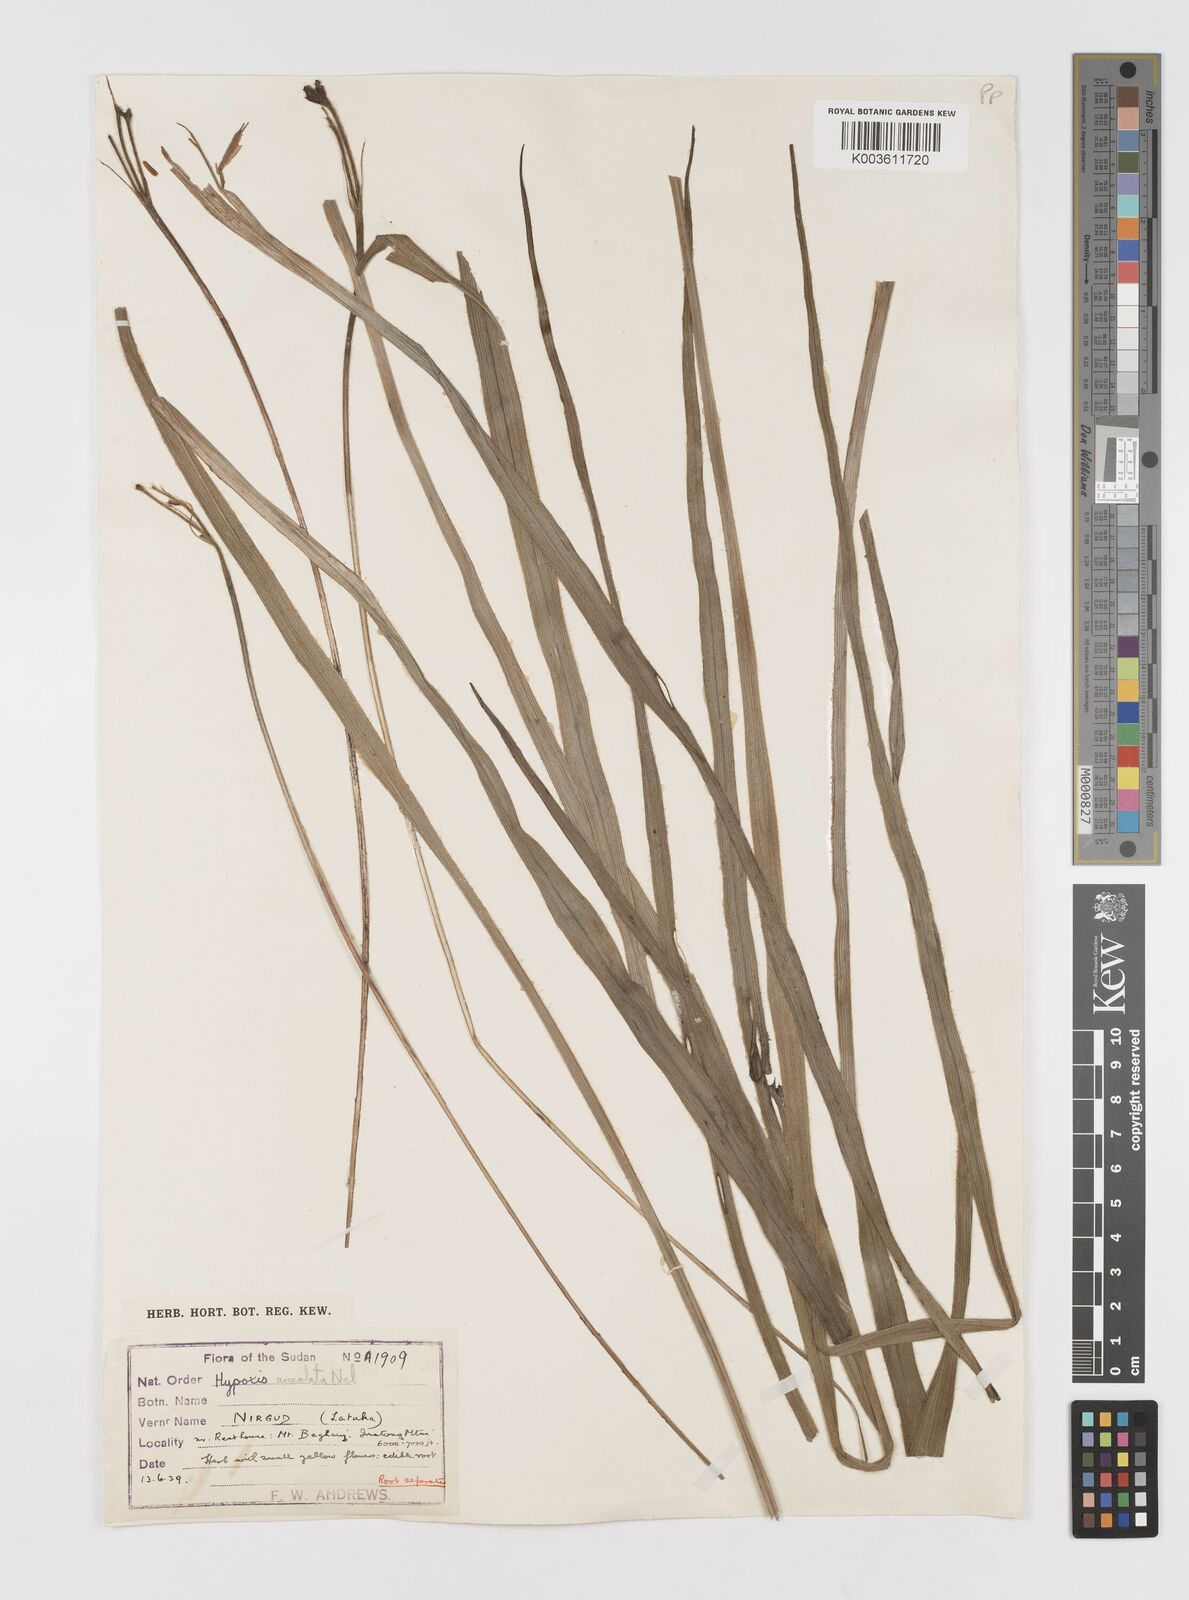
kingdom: Plantae
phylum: Tracheophyta
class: Liliopsida
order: Asparagales
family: Hypoxidaceae
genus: Hypoxis
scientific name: Hypoxis urceolata
